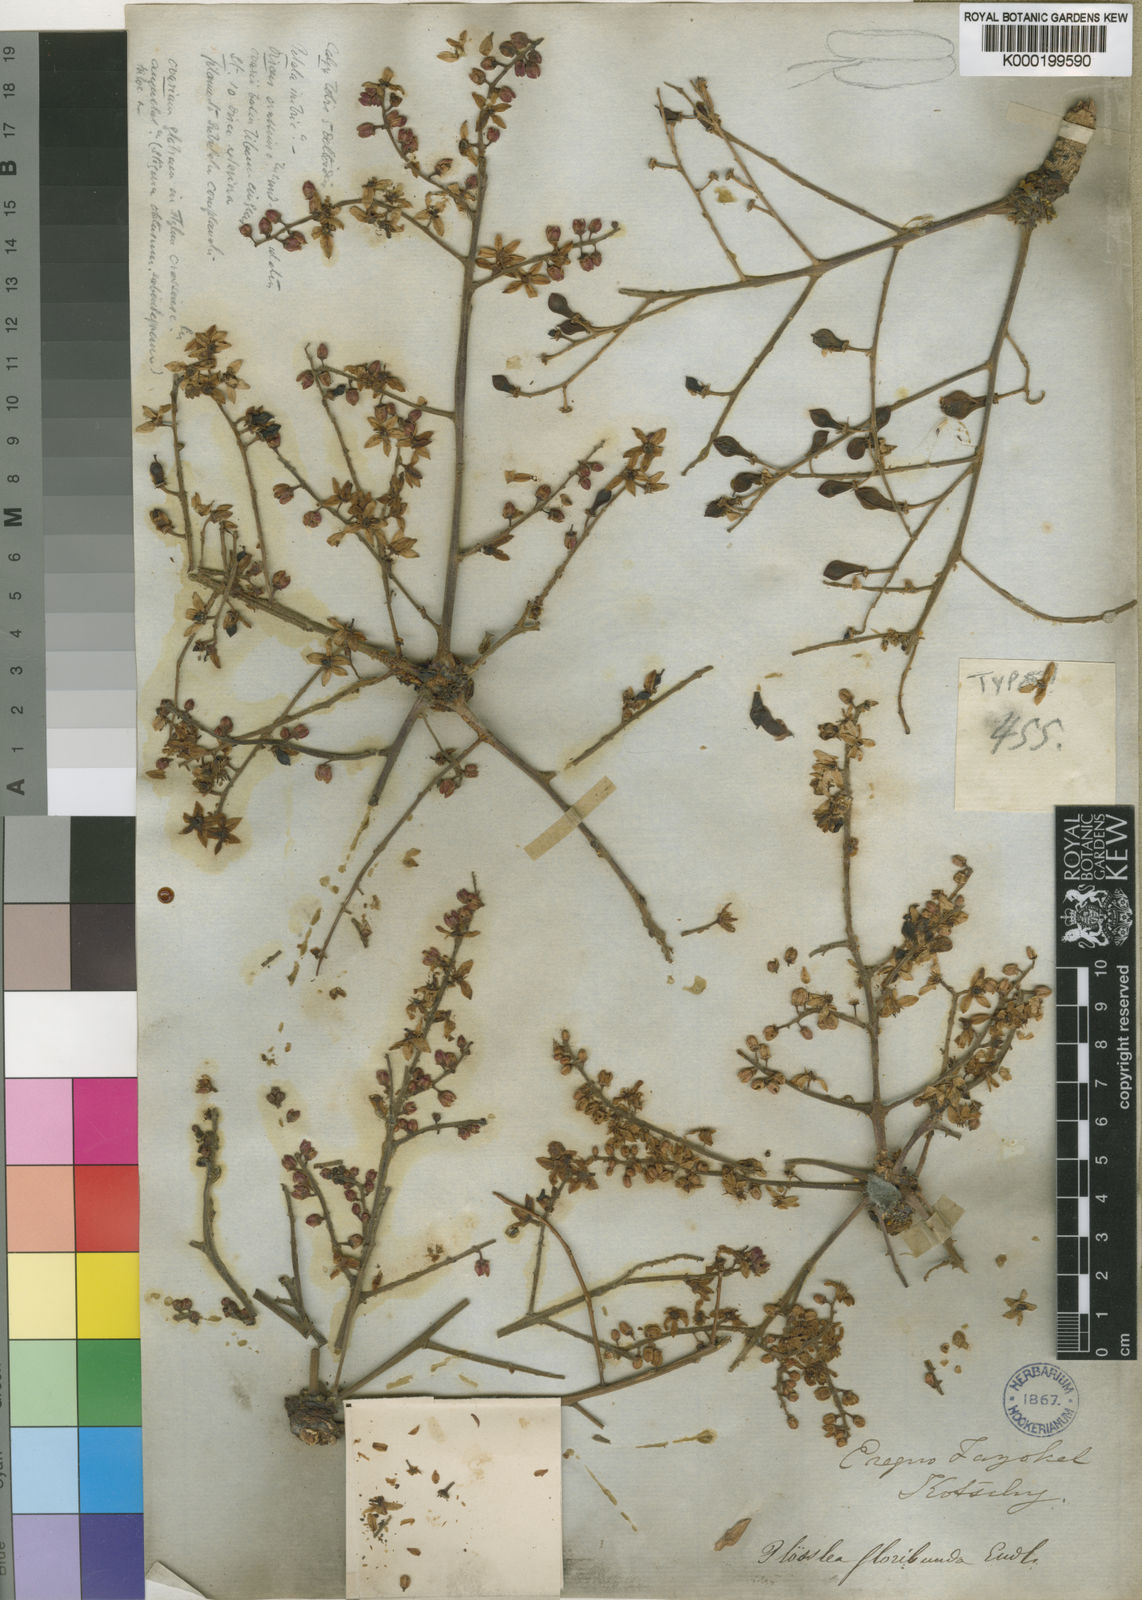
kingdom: Plantae
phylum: Tracheophyta
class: Magnoliopsida
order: Sapindales
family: Burseraceae
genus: Boswellia
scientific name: Boswellia papyrifera
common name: Sudanese frankincense
